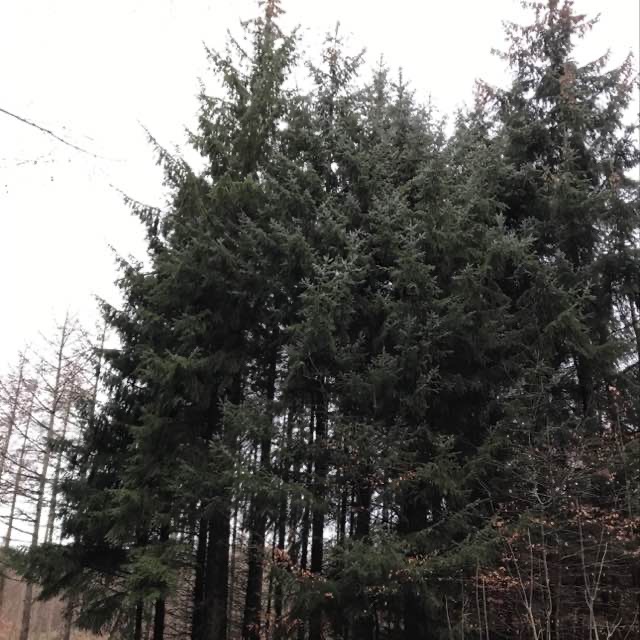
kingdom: Plantae
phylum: Tracheophyta
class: Pinopsida
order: Pinales
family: Pinaceae
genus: Picea
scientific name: Picea sitchensis
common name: Sitka-gran
